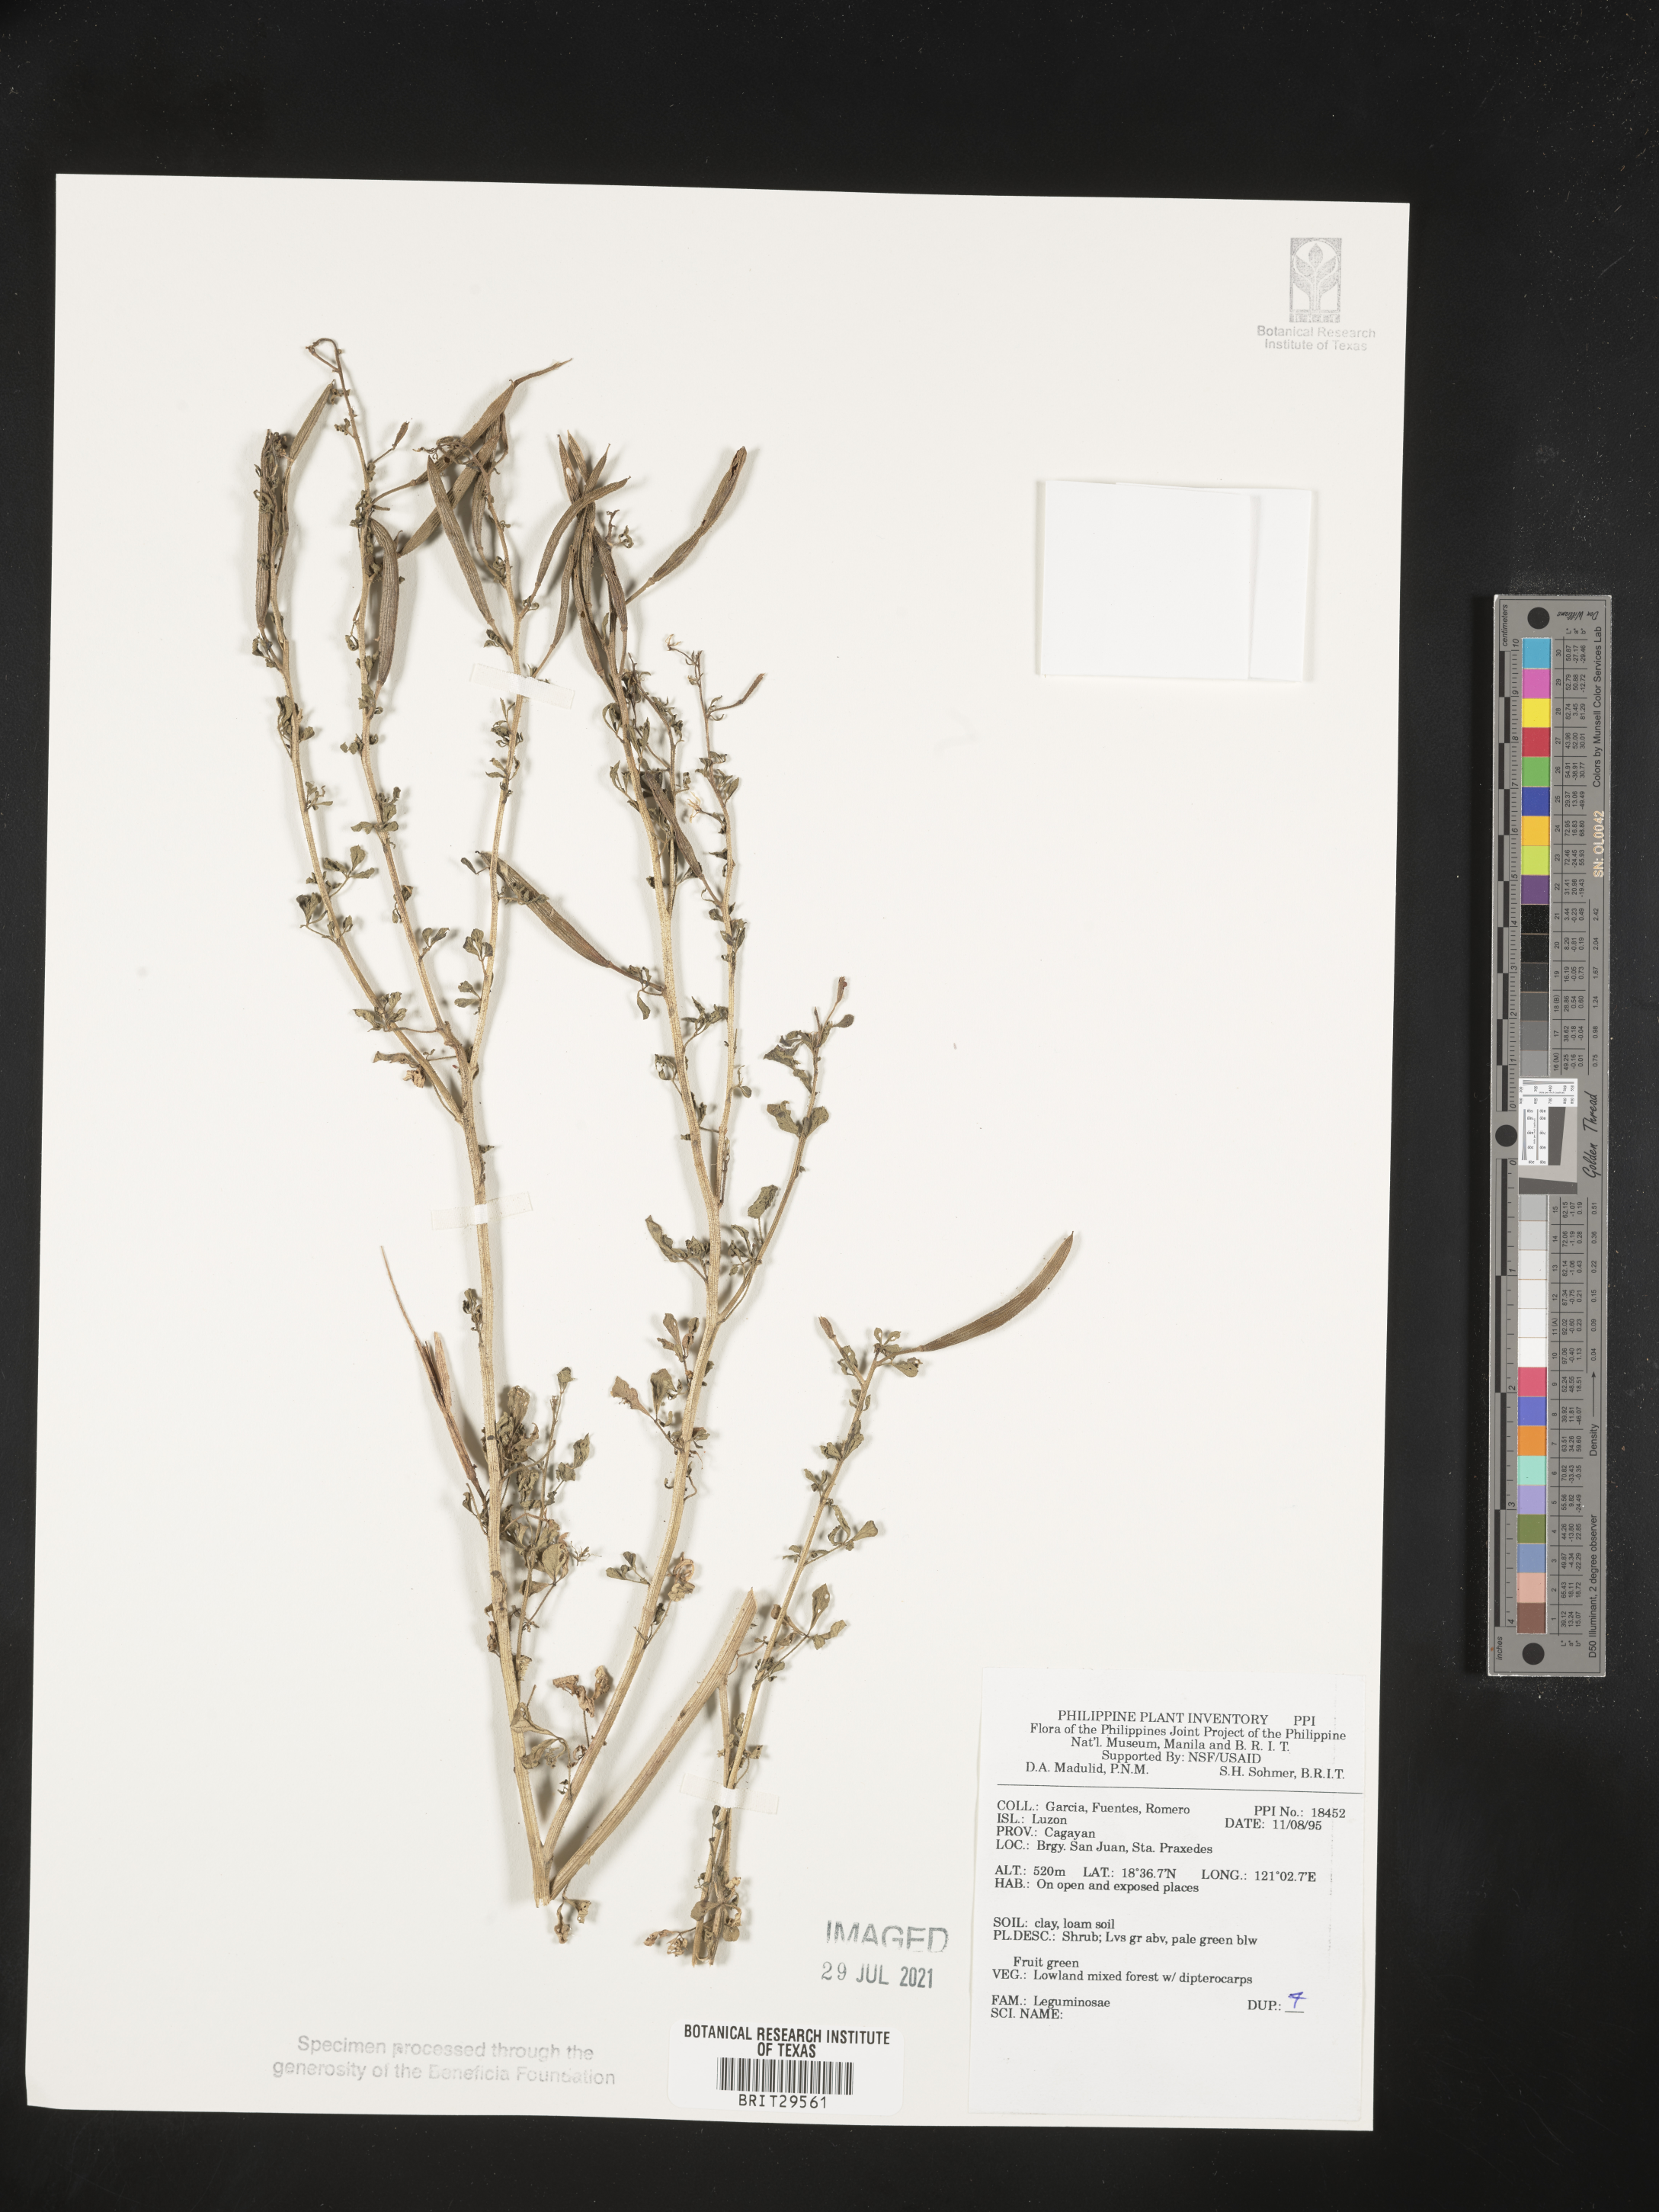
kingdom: Plantae
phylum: Tracheophyta
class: Magnoliopsida
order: Fabales
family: Fabaceae
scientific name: Fabaceae
